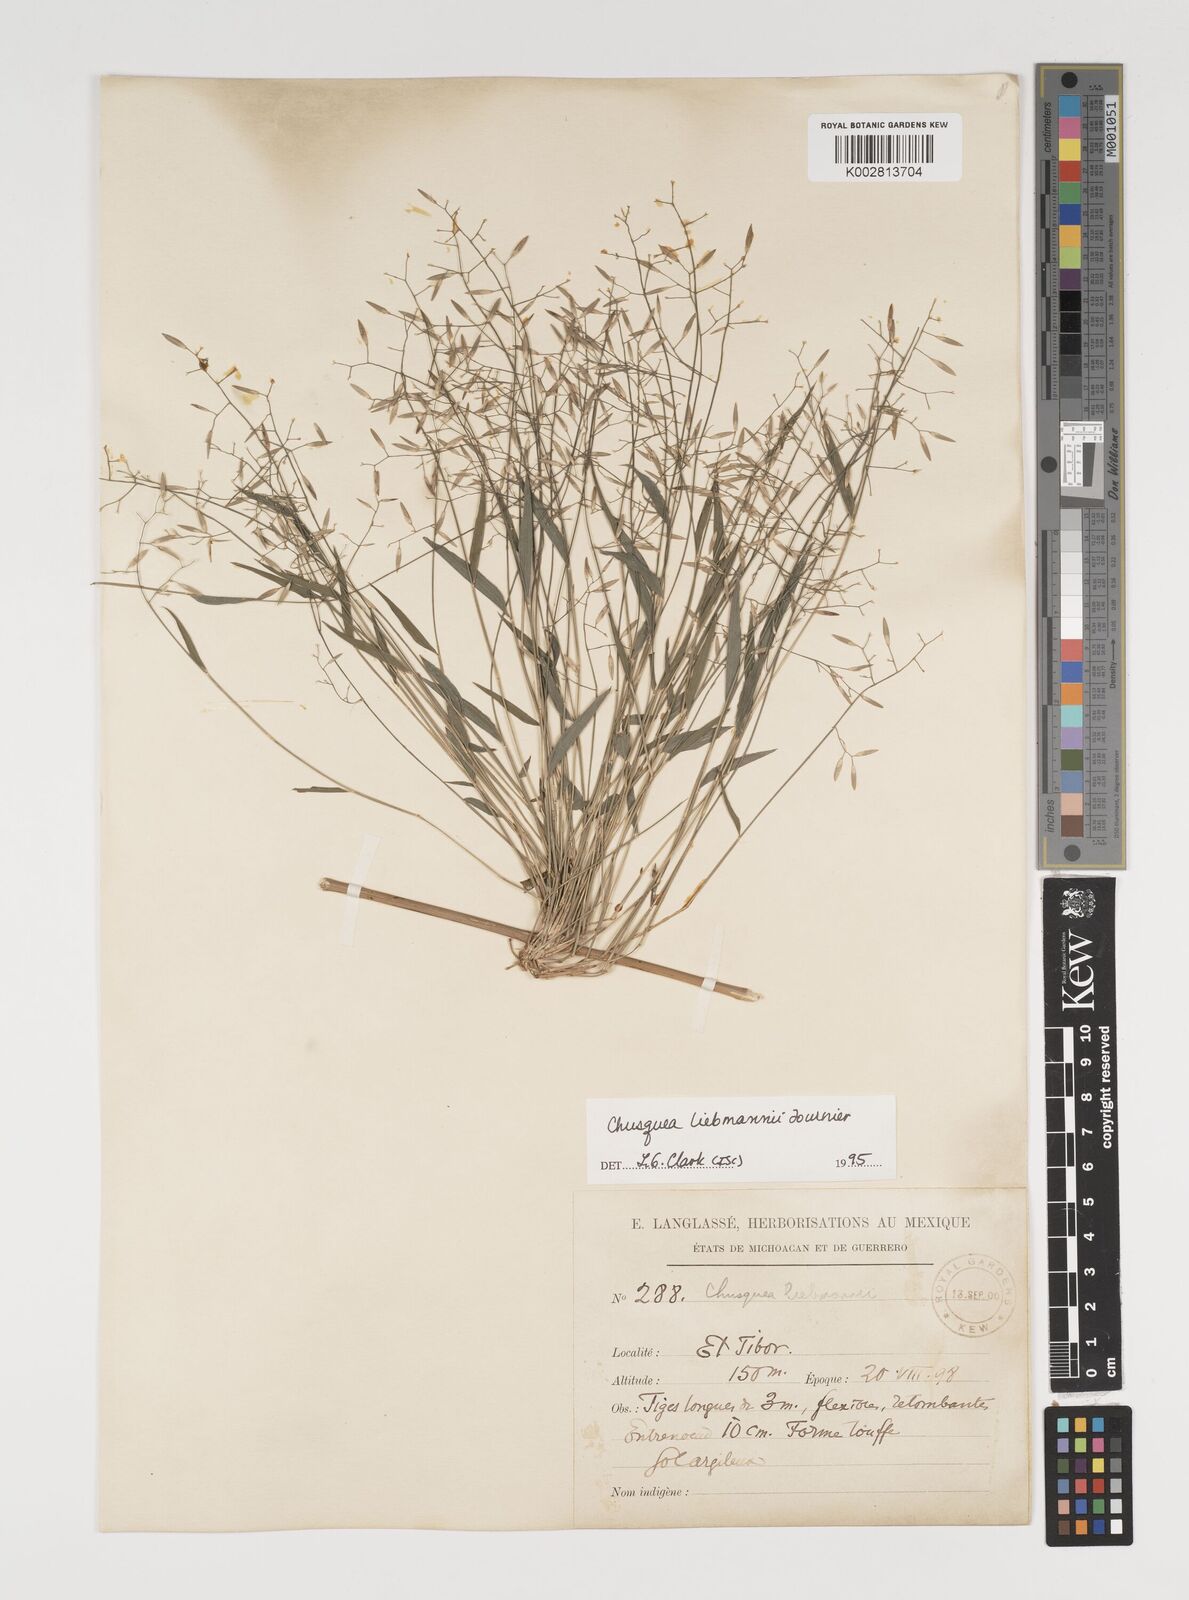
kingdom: Plantae
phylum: Tracheophyta
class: Liliopsida
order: Poales
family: Poaceae
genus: Chusquea
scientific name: Chusquea liebmannii
